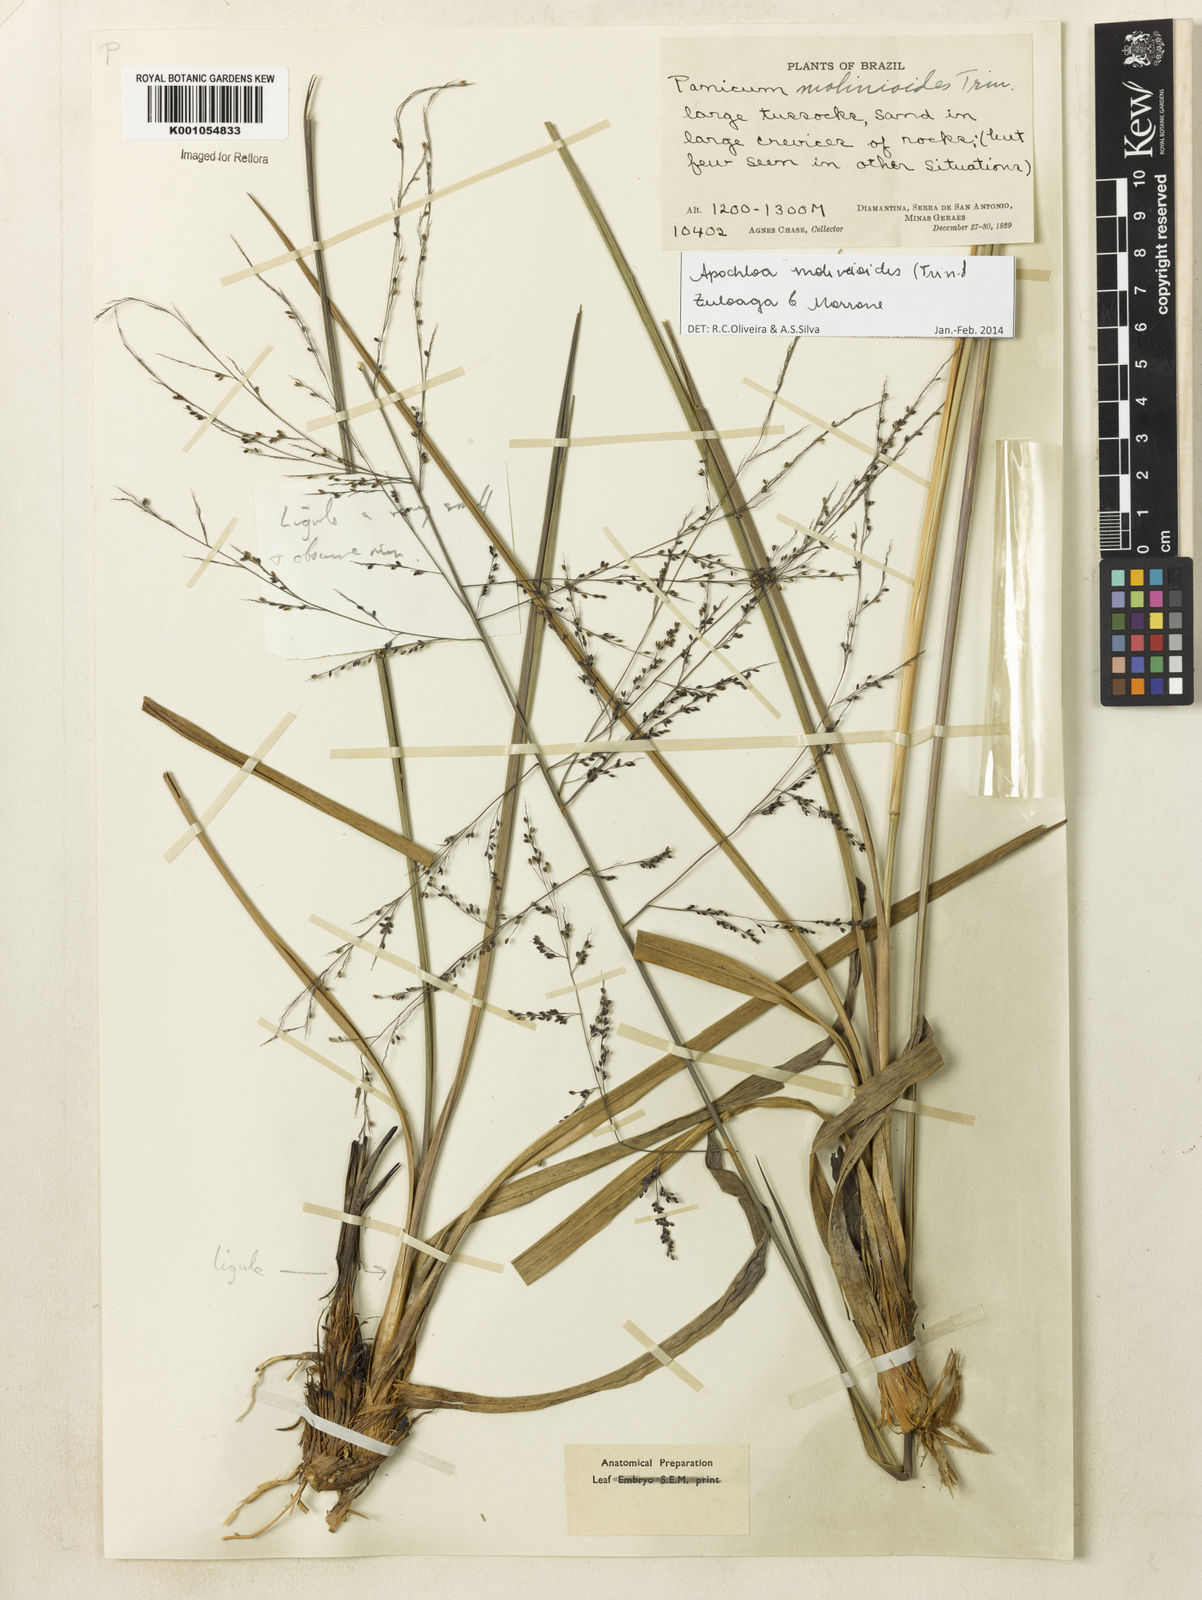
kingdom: Plantae
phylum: Tracheophyta
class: Liliopsida
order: Poales
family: Poaceae
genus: Apochloa
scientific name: Apochloa molinioides
